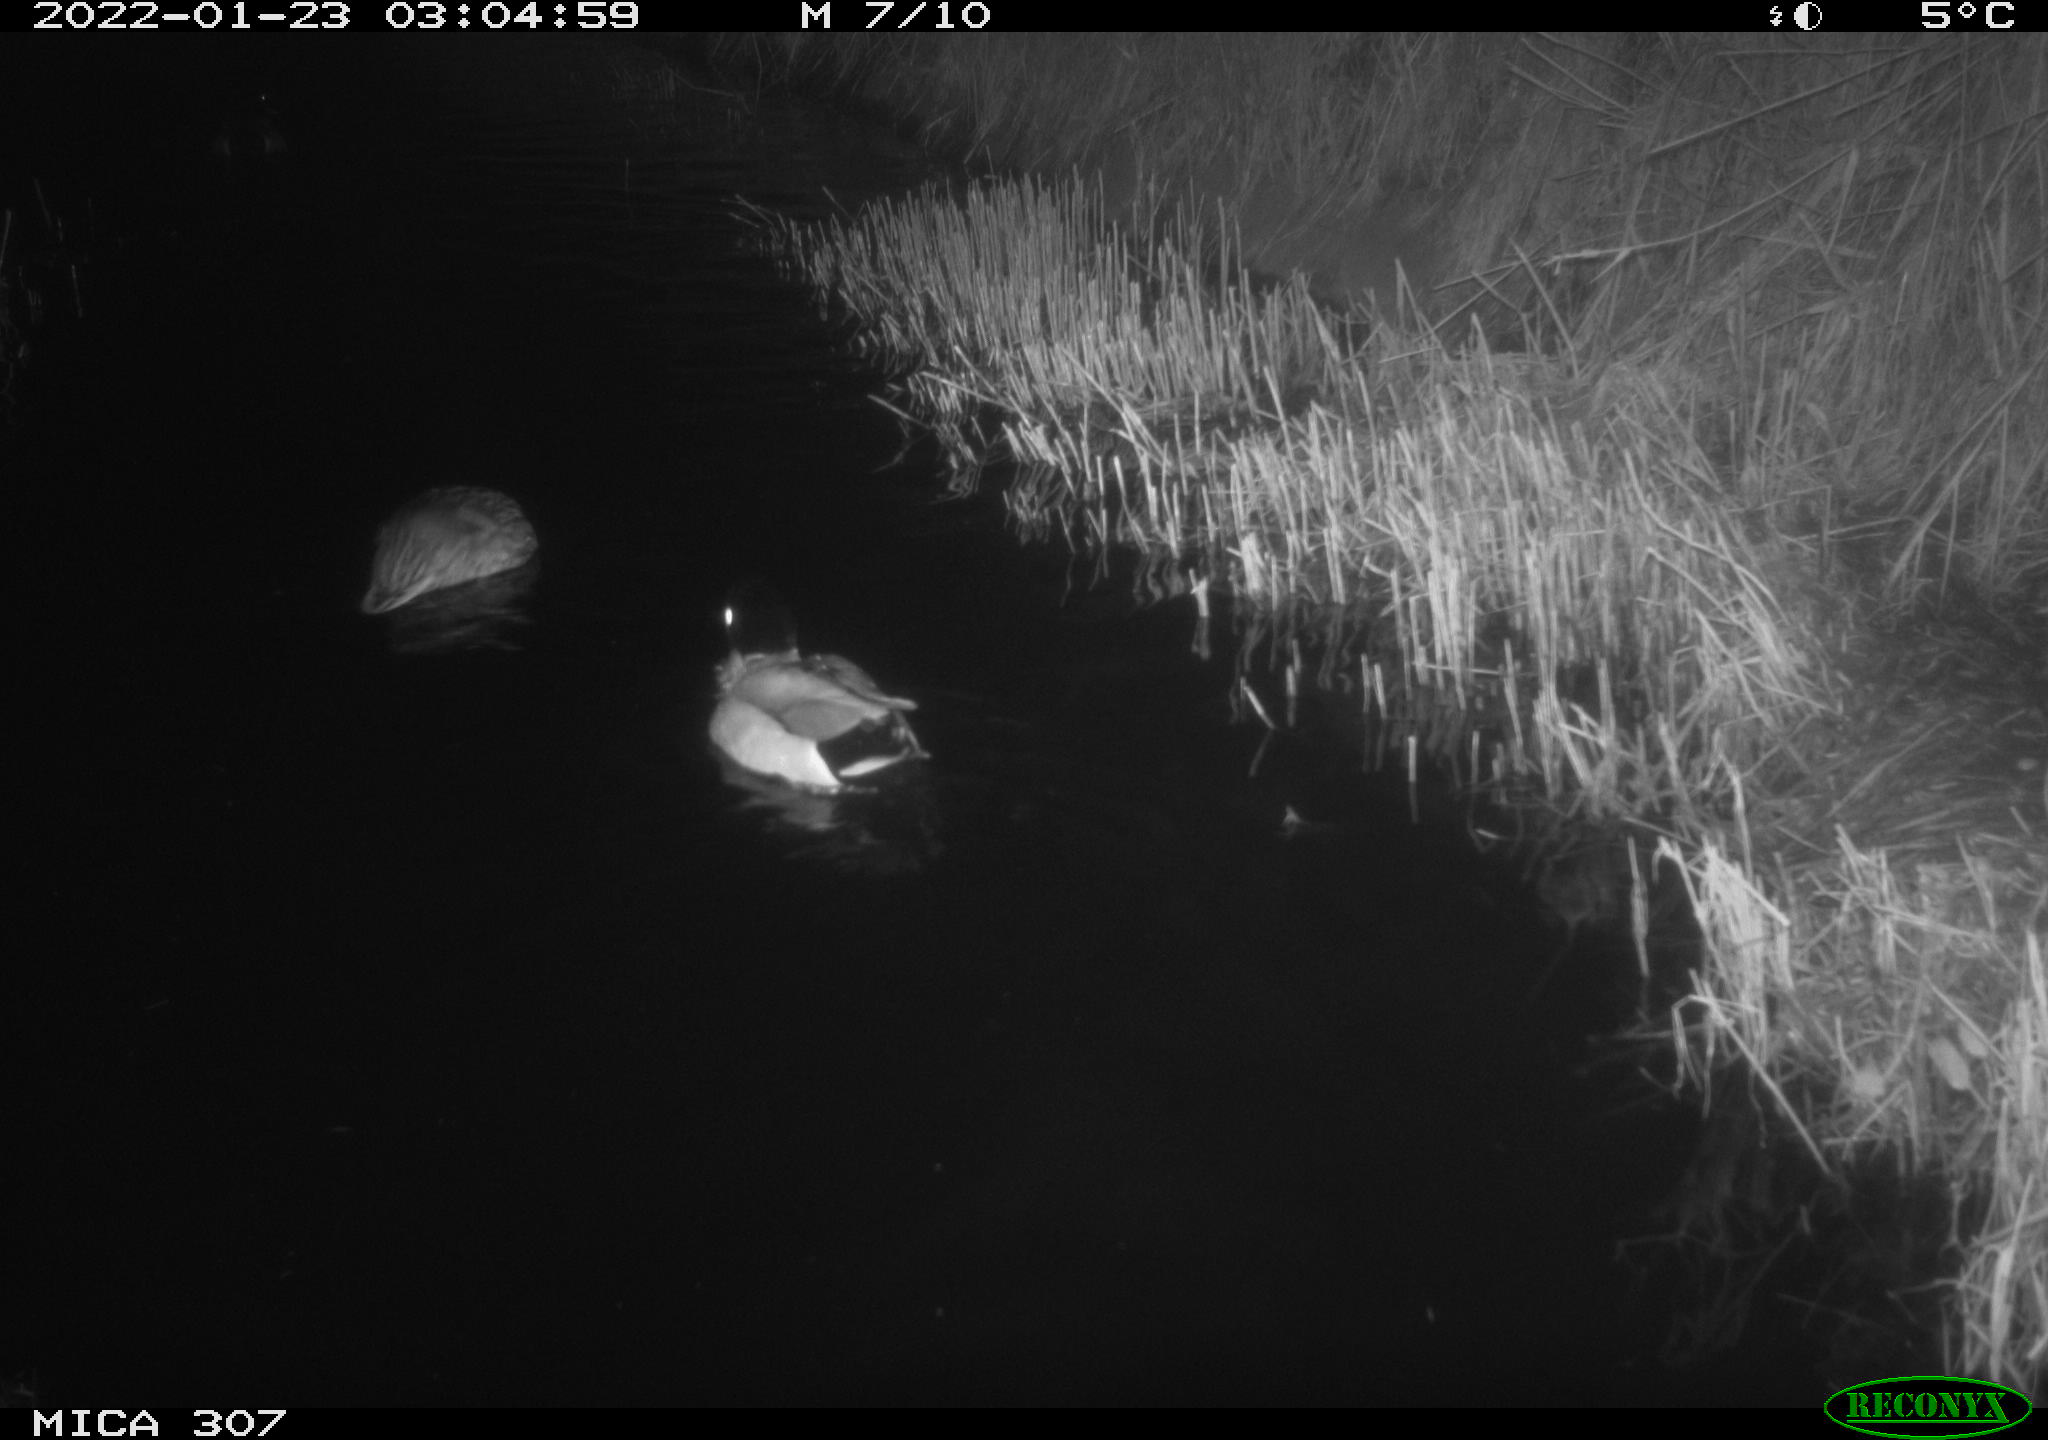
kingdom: Animalia
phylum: Chordata
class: Aves
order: Anseriformes
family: Anatidae
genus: Anas
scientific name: Anas
